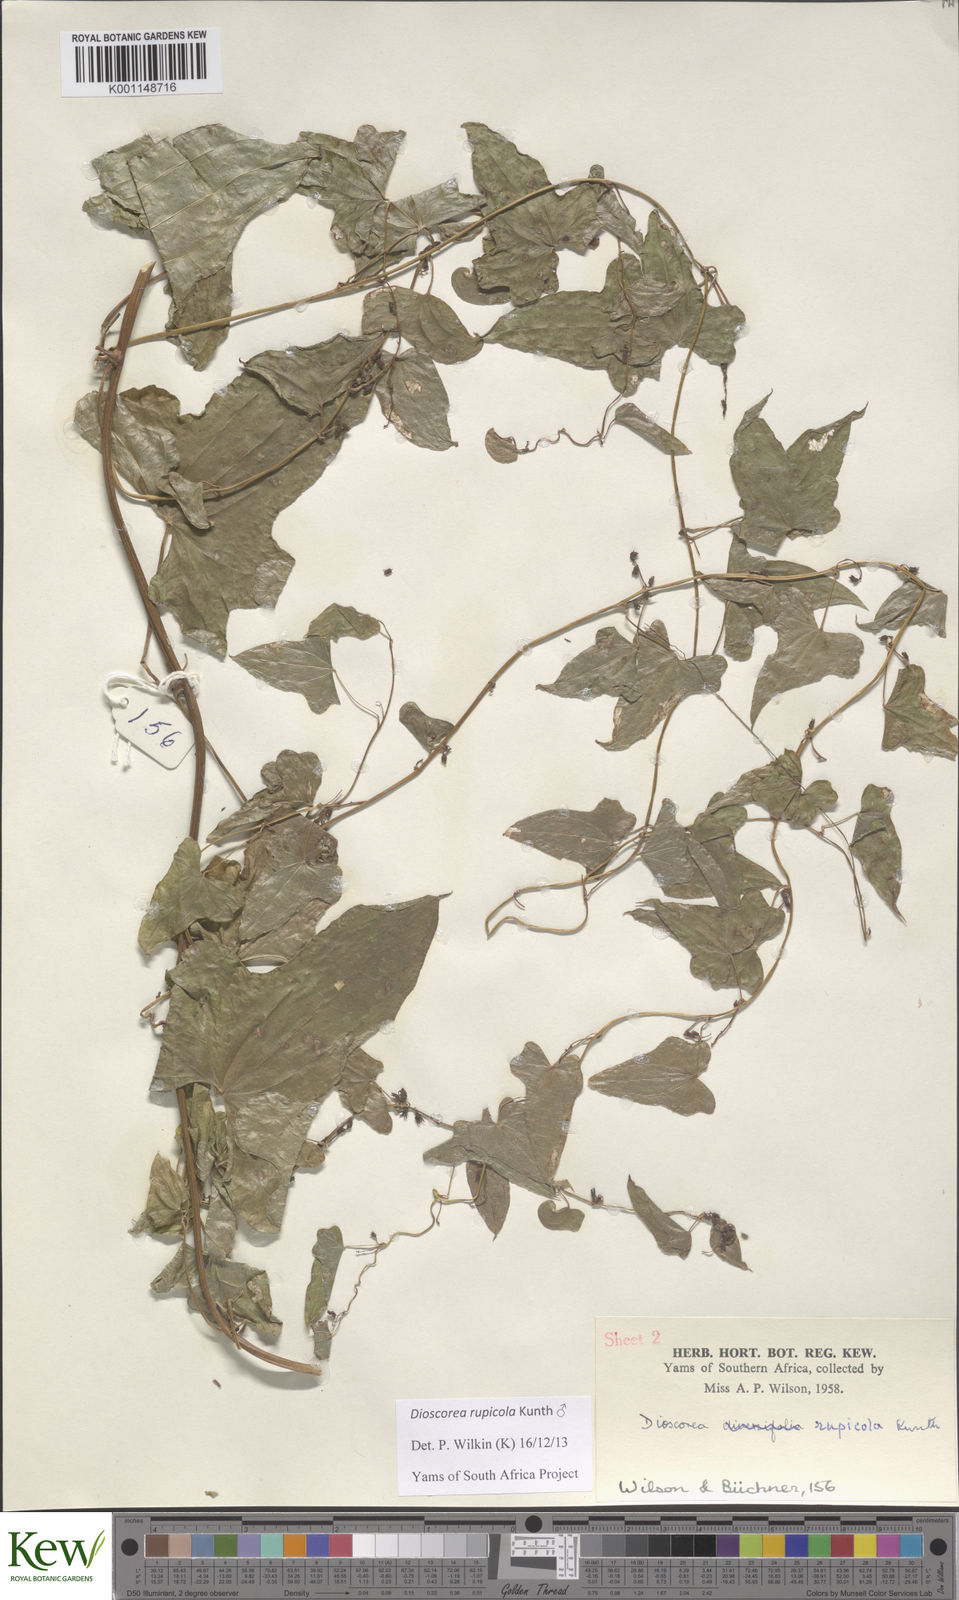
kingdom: Plantae
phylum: Tracheophyta
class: Liliopsida
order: Dioscoreales
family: Dioscoreaceae
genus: Dioscorea
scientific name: Dioscorea rupicola
